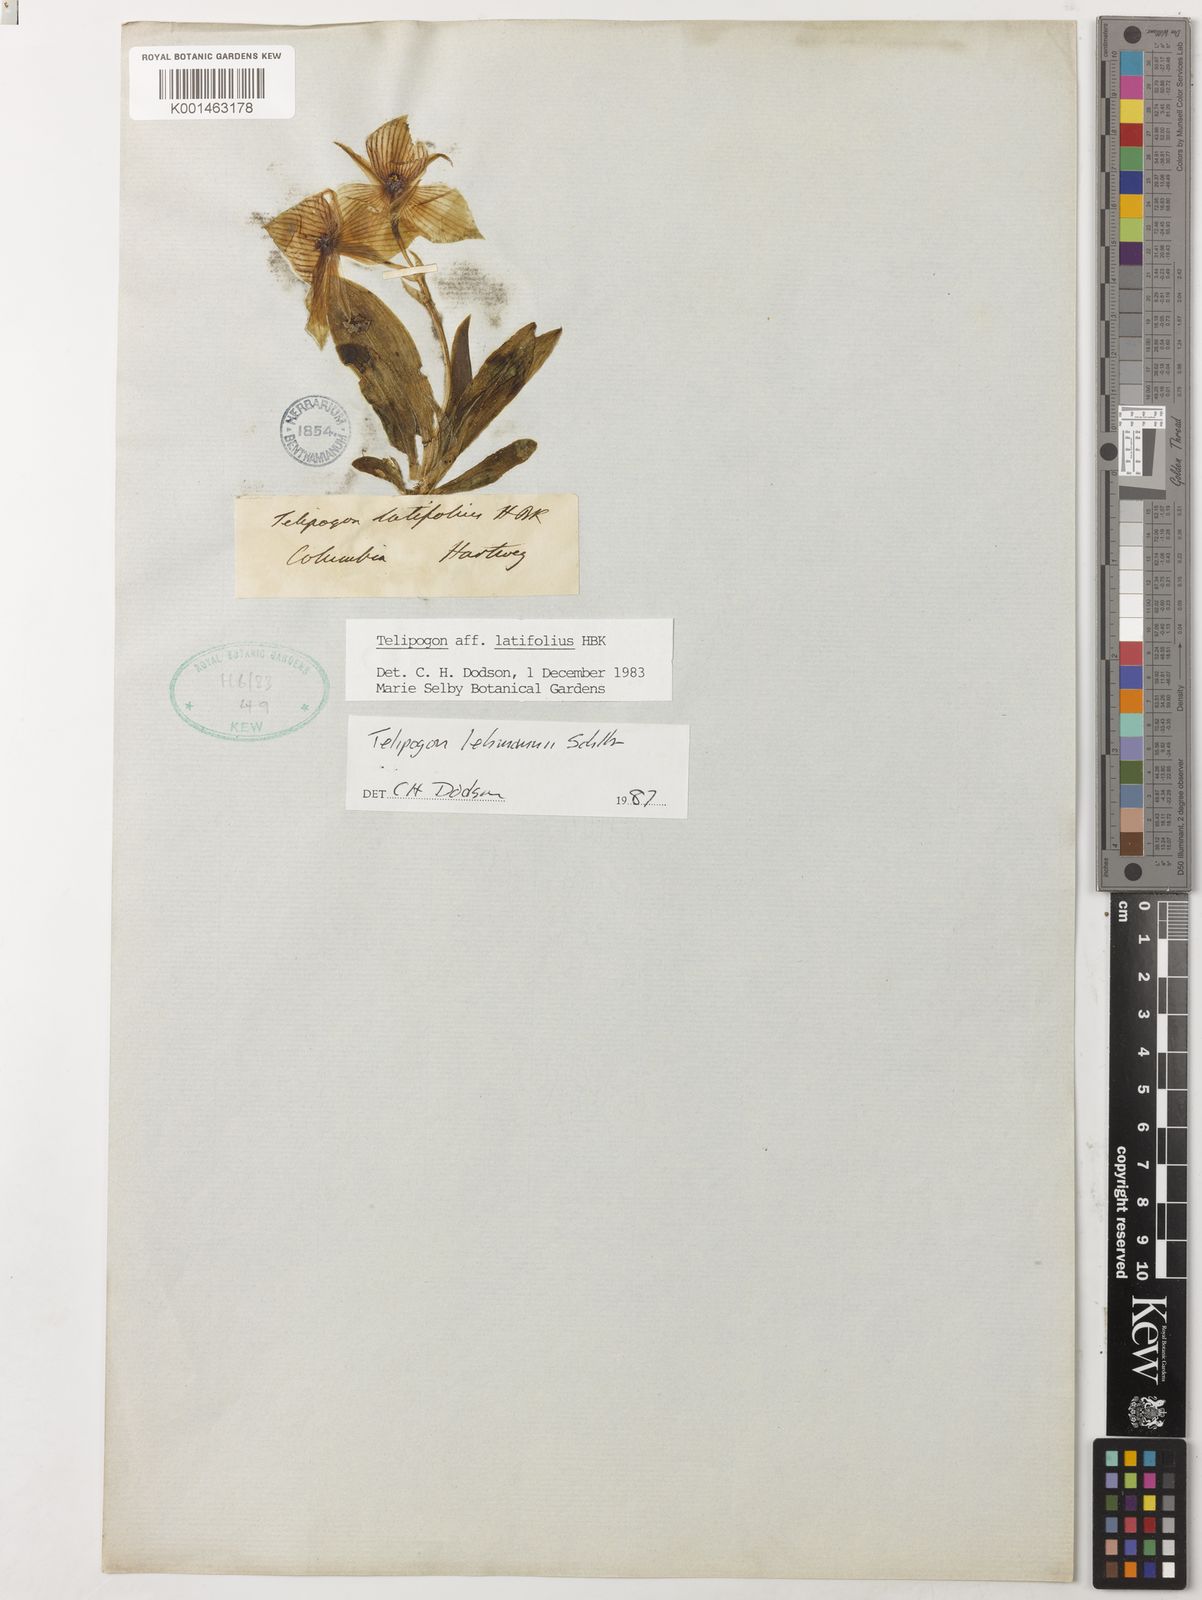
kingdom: Plantae
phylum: Tracheophyta
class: Liliopsida
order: Asparagales
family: Orchidaceae
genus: Telipogon
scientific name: Telipogon lehmannii
